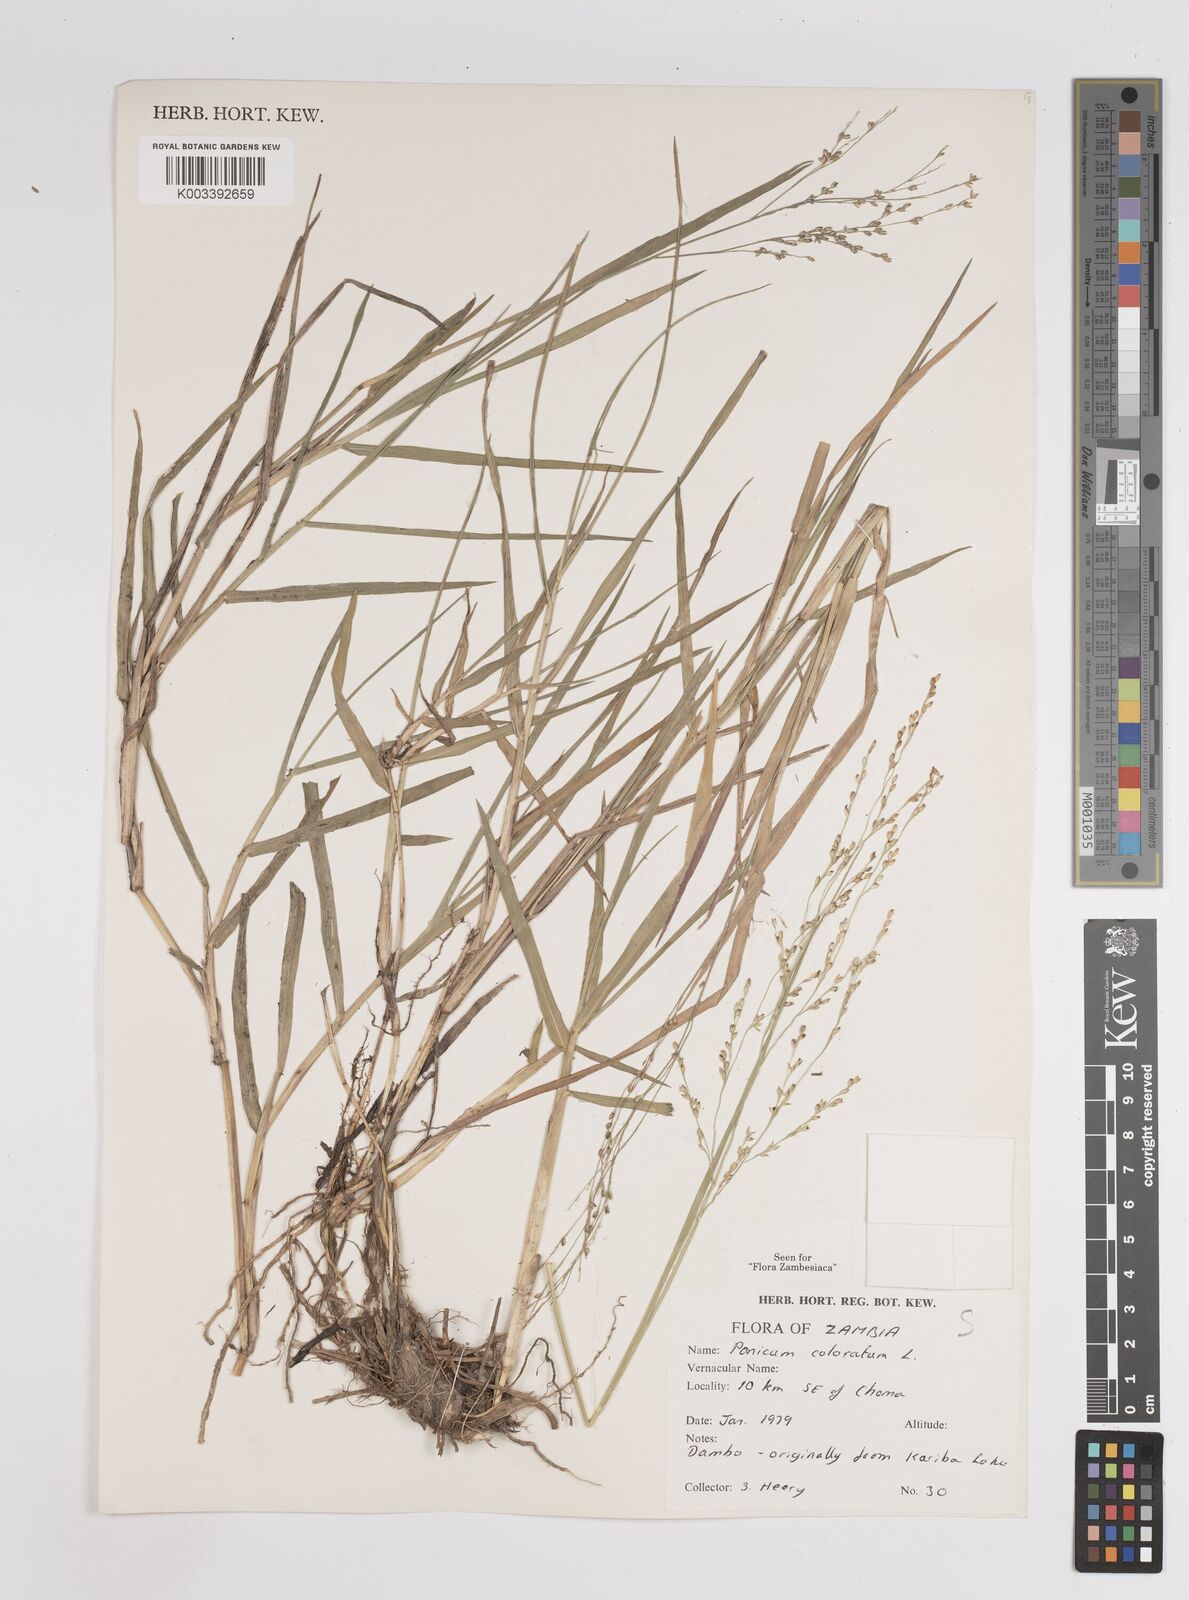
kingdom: Plantae
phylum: Tracheophyta
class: Liliopsida
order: Poales
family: Poaceae
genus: Panicum
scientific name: Panicum
